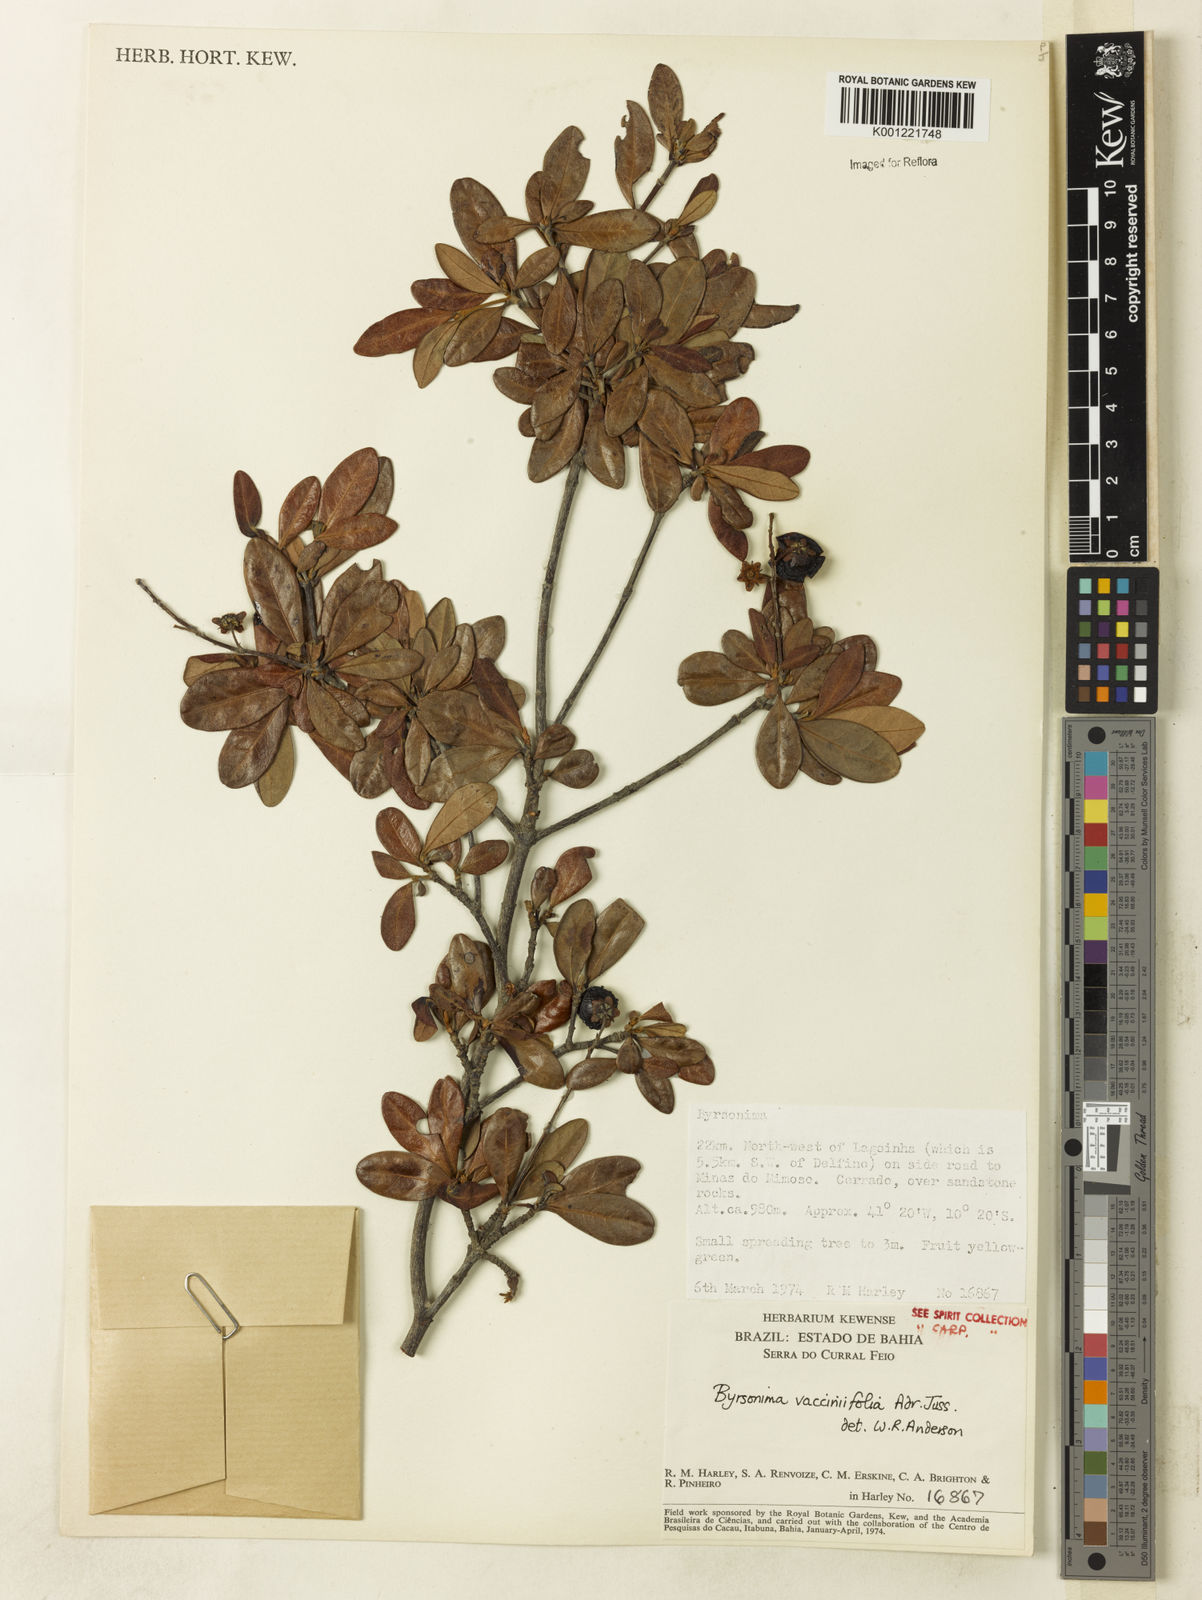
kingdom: Plantae
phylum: Tracheophyta
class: Magnoliopsida
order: Malpighiales
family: Malpighiaceae
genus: Byrsonima
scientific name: Byrsonima vacciniifolia
